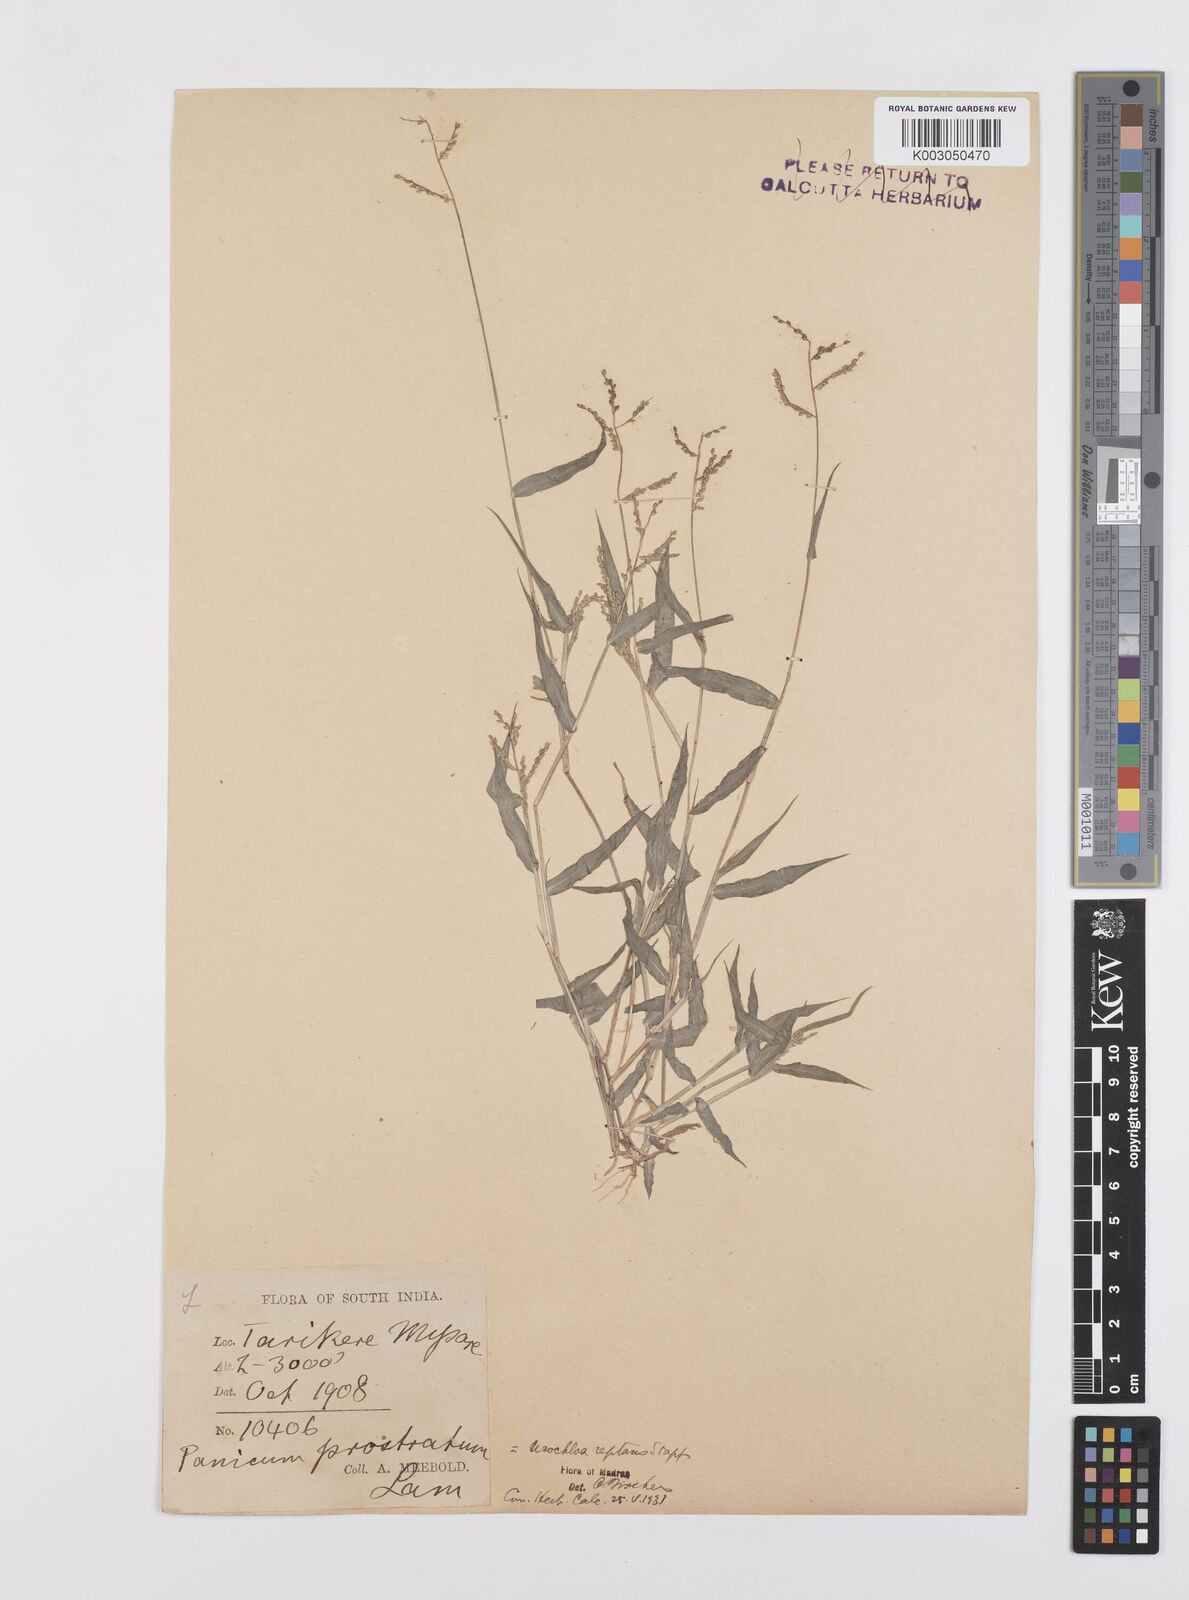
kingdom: Plantae
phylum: Tracheophyta
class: Liliopsida
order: Poales
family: Poaceae
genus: Urochloa
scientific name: Urochloa reptans
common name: Sprawling signalgrass
